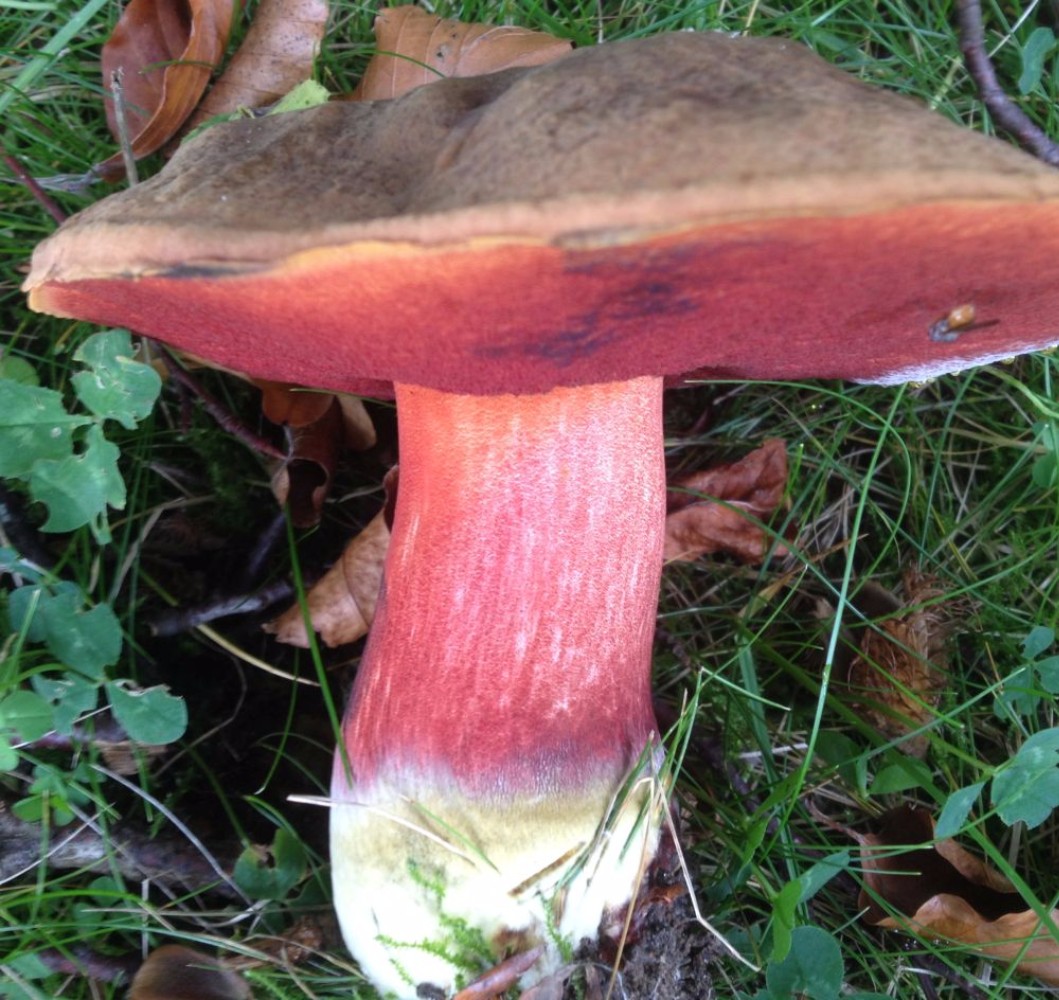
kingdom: Fungi
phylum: Basidiomycota
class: Agaricomycetes
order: Boletales
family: Boletaceae
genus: Neoboletus
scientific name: Neoboletus erythropus
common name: punktstokket indigorørhat
